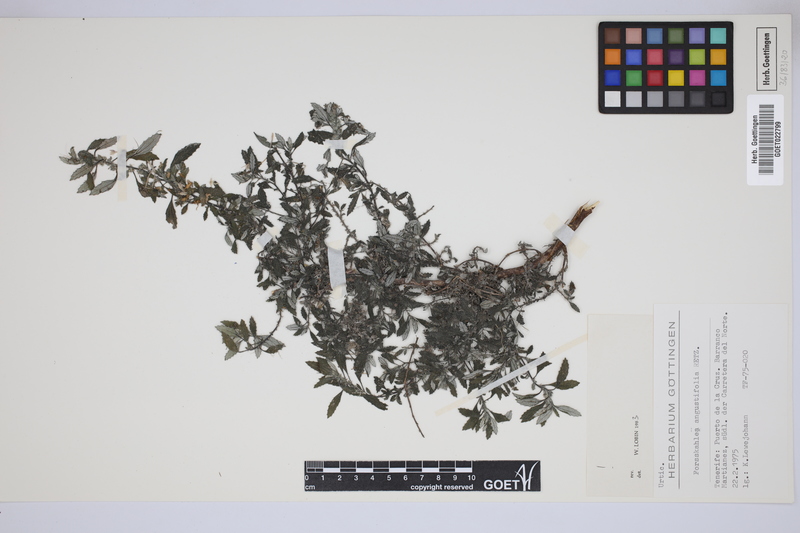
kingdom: Plantae
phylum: Tracheophyta
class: Magnoliopsida
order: Rosales
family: Urticaceae
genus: Forsskaolea
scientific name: Forsskaolea angustifolia
